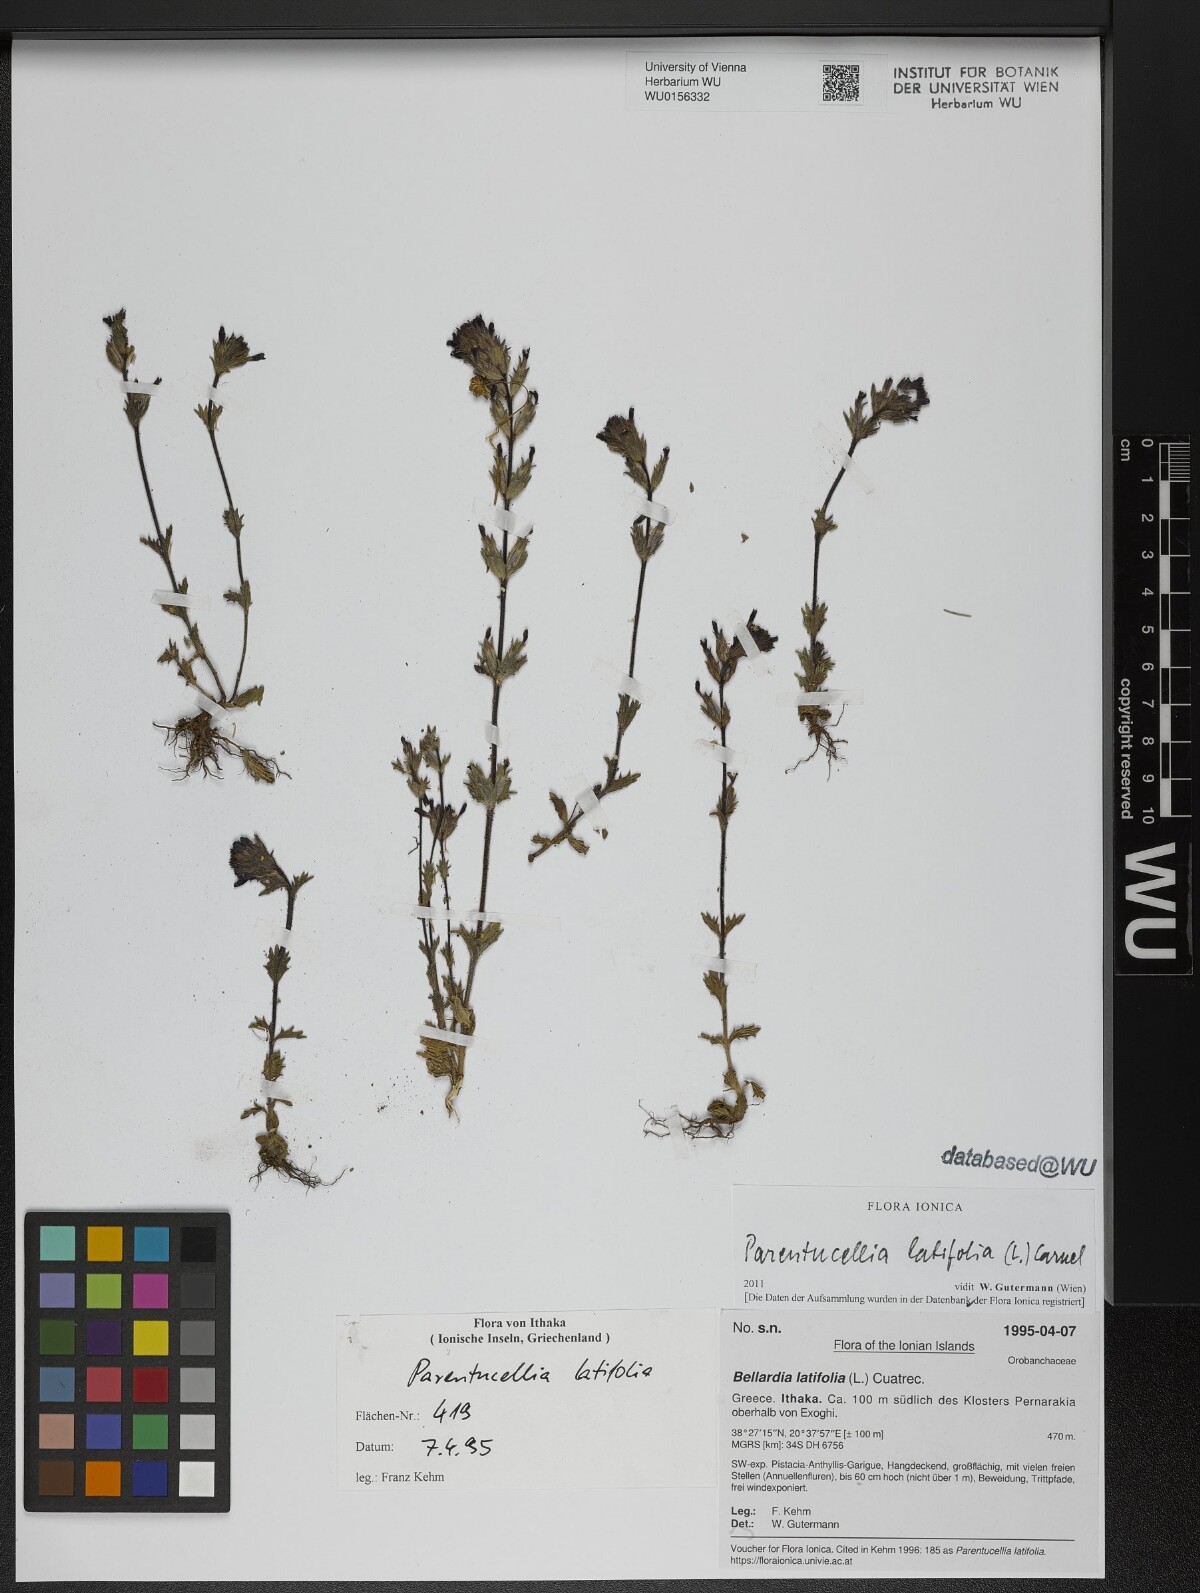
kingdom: Plantae
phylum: Tracheophyta
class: Magnoliopsida
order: Lamiales
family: Orobanchaceae
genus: Parentucellia
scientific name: Parentucellia latifolia
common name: Broadleaf glandweed
